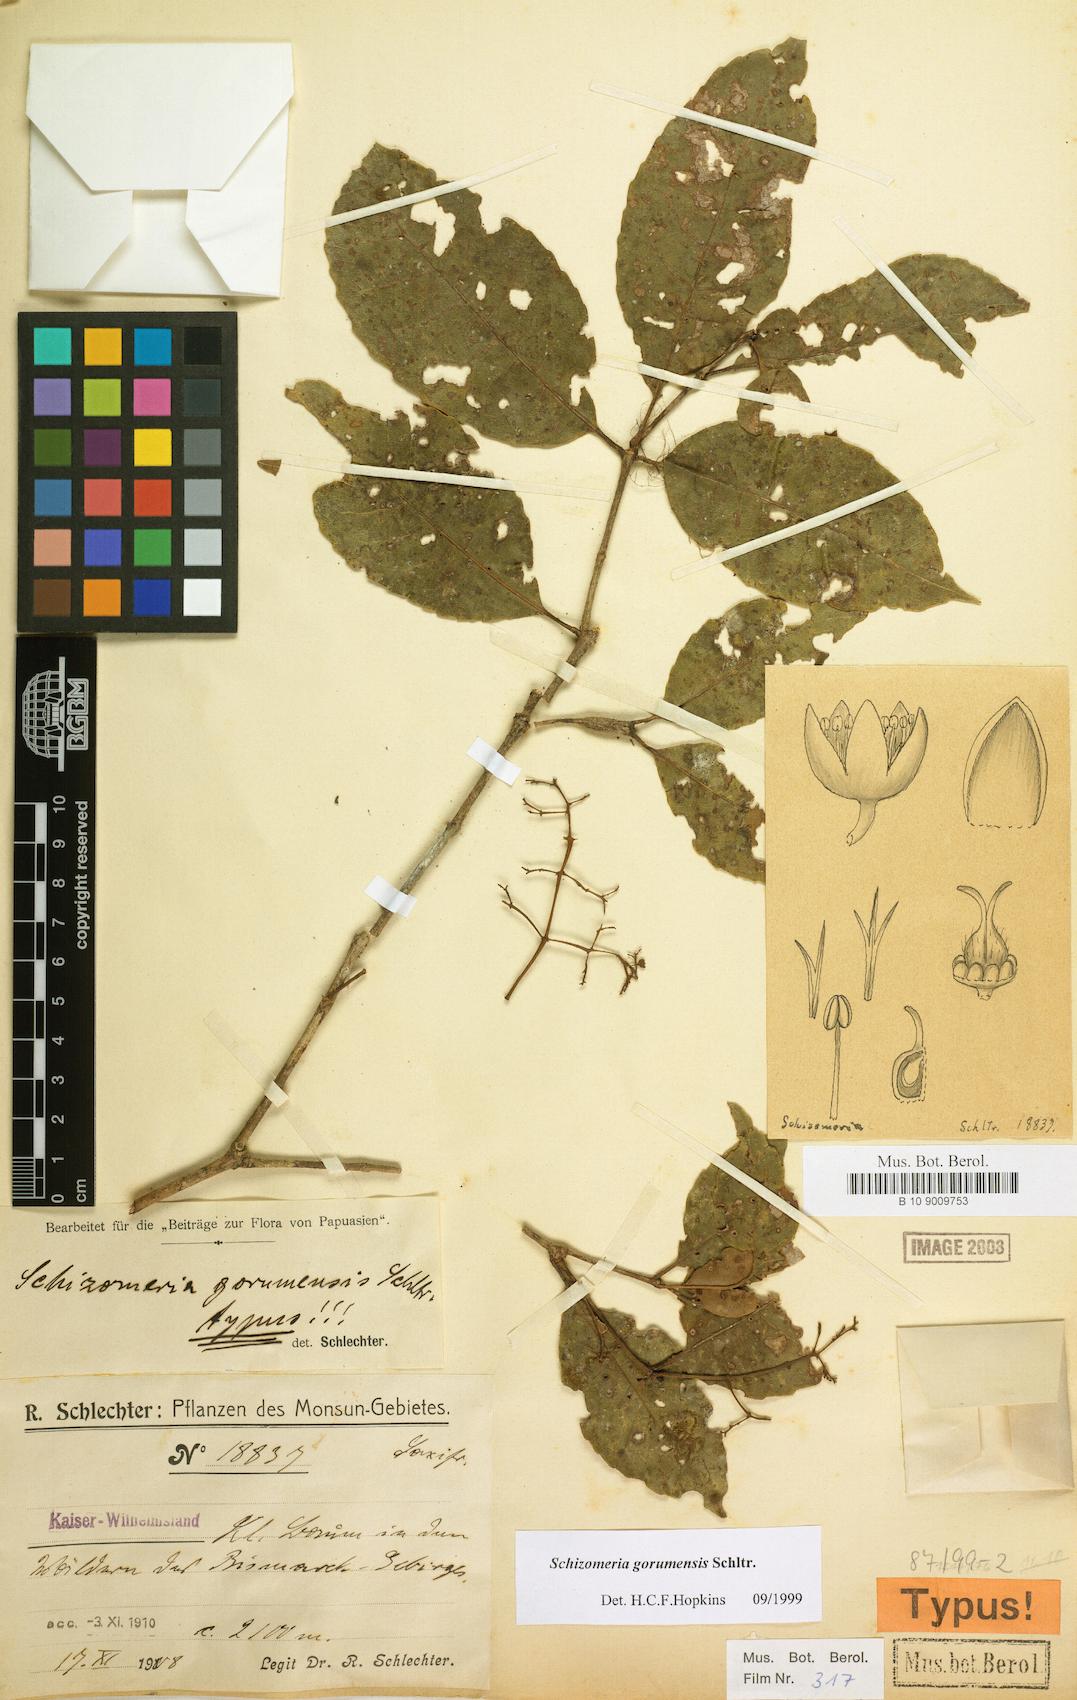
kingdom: Plantae
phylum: Tracheophyta
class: Magnoliopsida
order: Oxalidales
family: Cunoniaceae
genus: Schizomeria
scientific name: Schizomeria gorumensis
